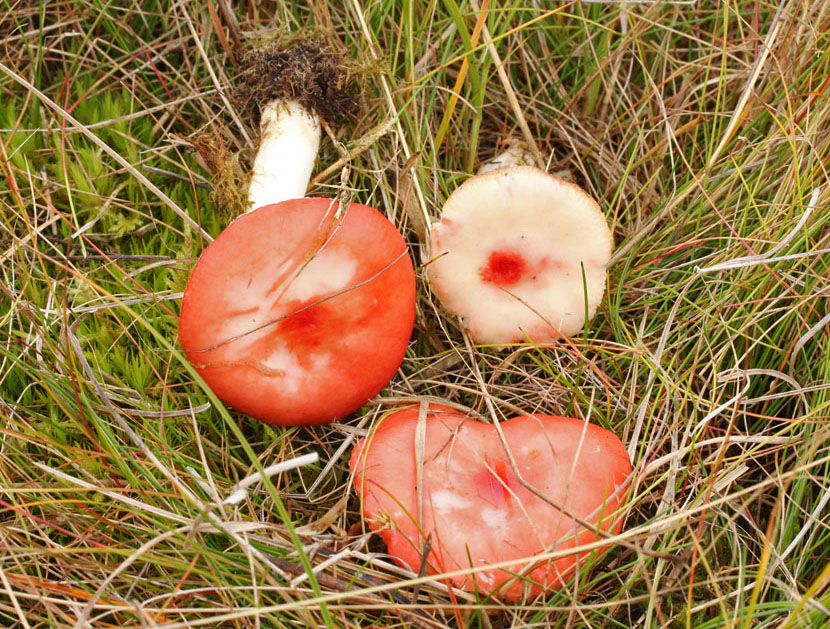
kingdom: Fungi
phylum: Basidiomycota
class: Agaricomycetes
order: Russulales
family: Russulaceae
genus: Russula
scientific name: Russula emetica
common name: stor gift-skørhat
